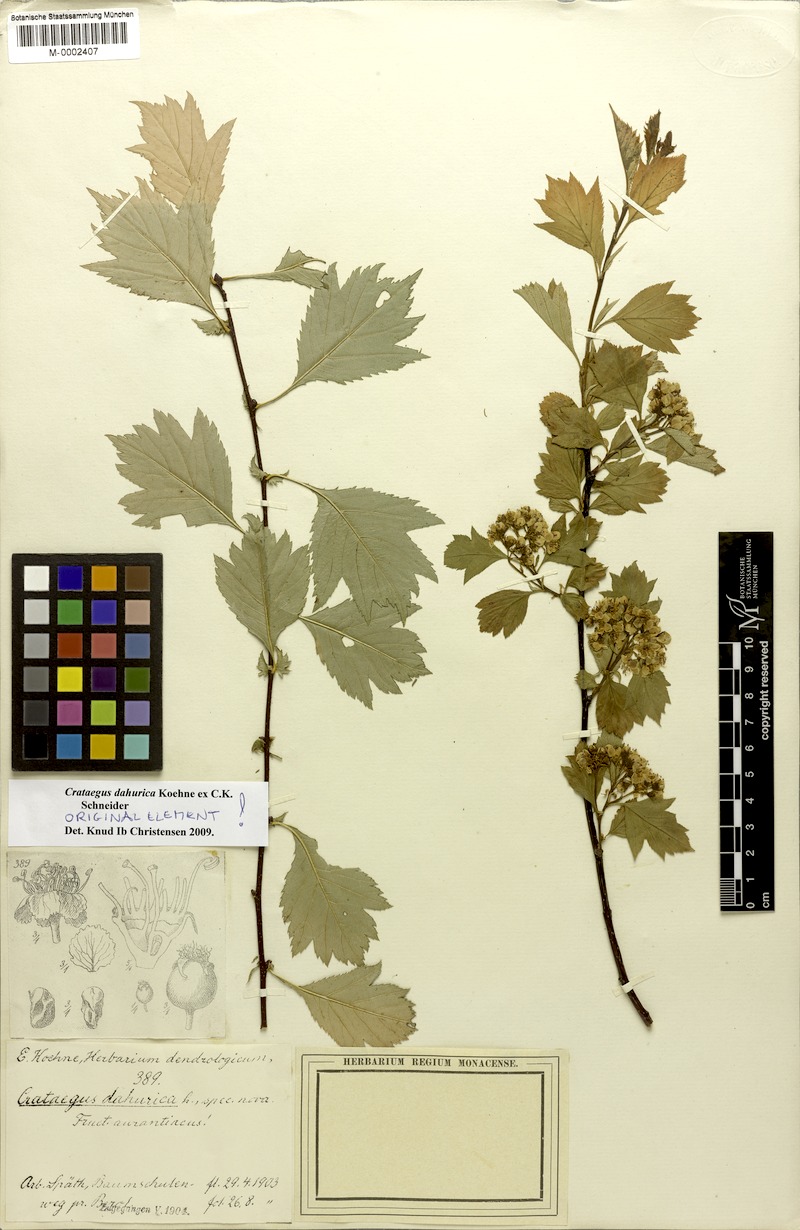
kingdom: Plantae
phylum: Tracheophyta
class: Magnoliopsida
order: Rosales
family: Rosaceae
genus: Crataegus
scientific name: Crataegus dahurica
